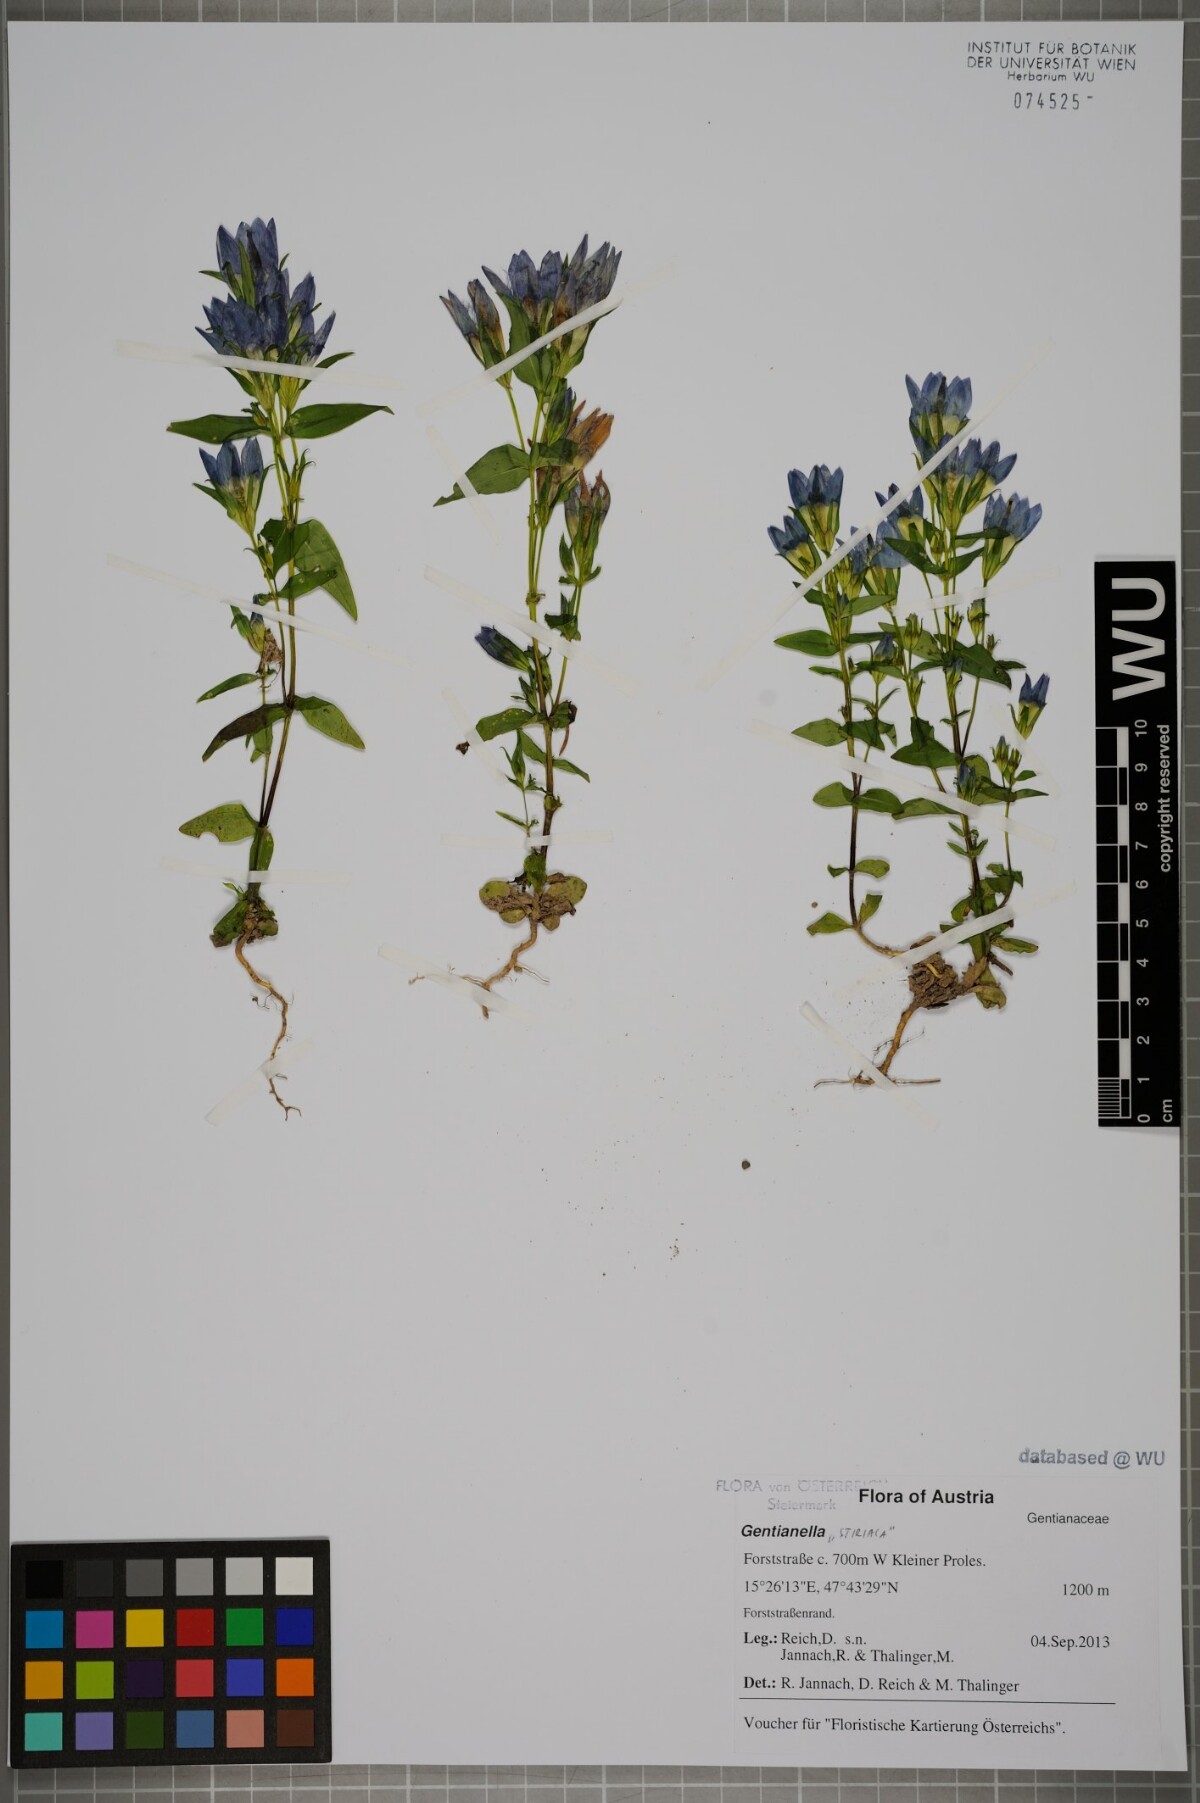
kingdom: Plantae
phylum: Tracheophyta
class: Magnoliopsida
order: Gentianales
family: Gentianaceae
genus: Gentianella
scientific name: Gentianella
